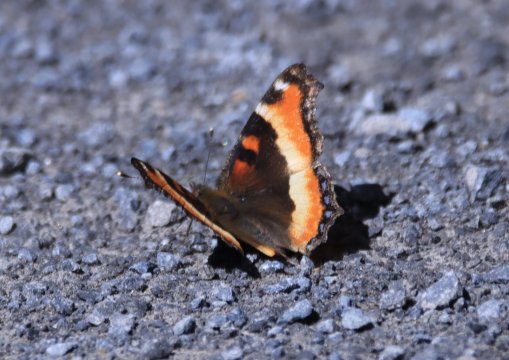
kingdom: Animalia
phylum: Arthropoda
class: Insecta
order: Lepidoptera
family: Nymphalidae
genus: Aglais
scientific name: Aglais milberti
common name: Milbert's Tortoiseshell
